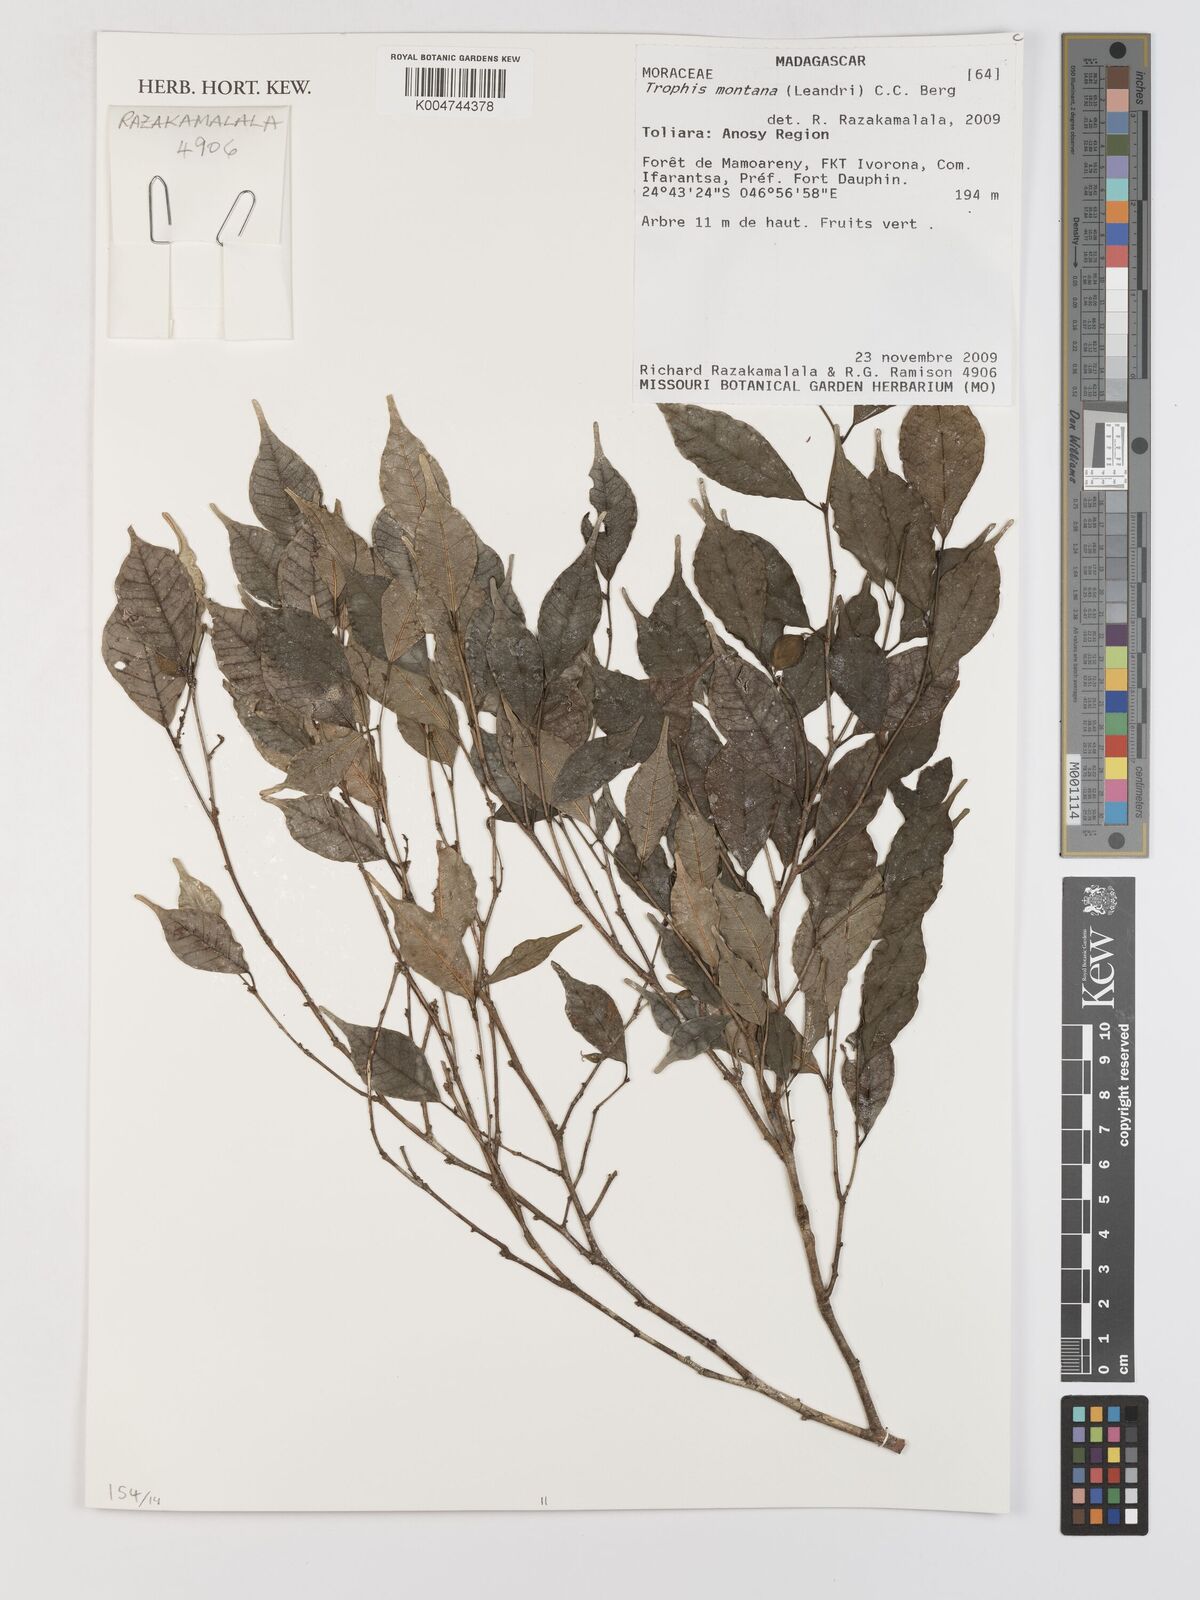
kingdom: Plantae
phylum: Tracheophyta
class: Magnoliopsida
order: Rosales
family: Moraceae
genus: Maillardia
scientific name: Maillardia montana
